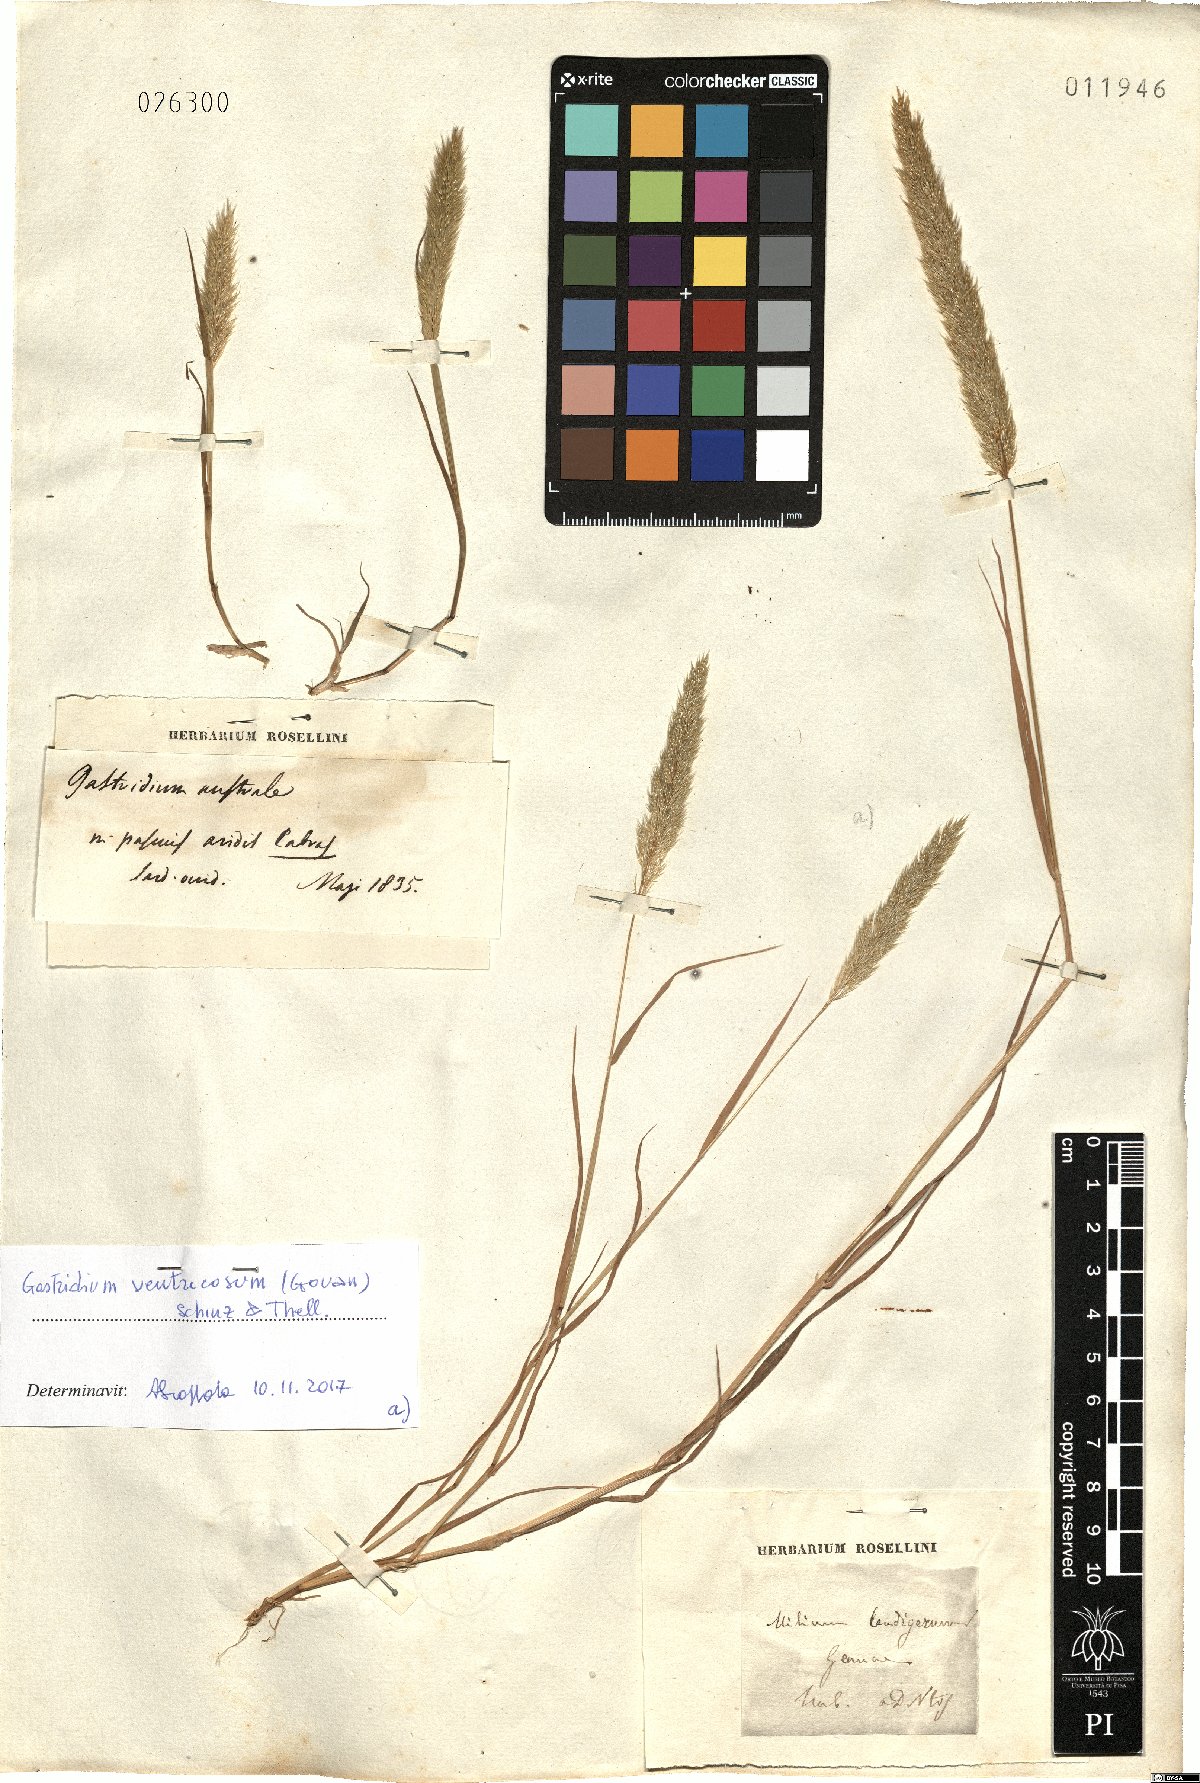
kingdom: Plantae
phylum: Tracheophyta
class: Liliopsida
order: Poales
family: Poaceae
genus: Gastridium
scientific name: Gastridium ventricosum
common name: Nit-grass
